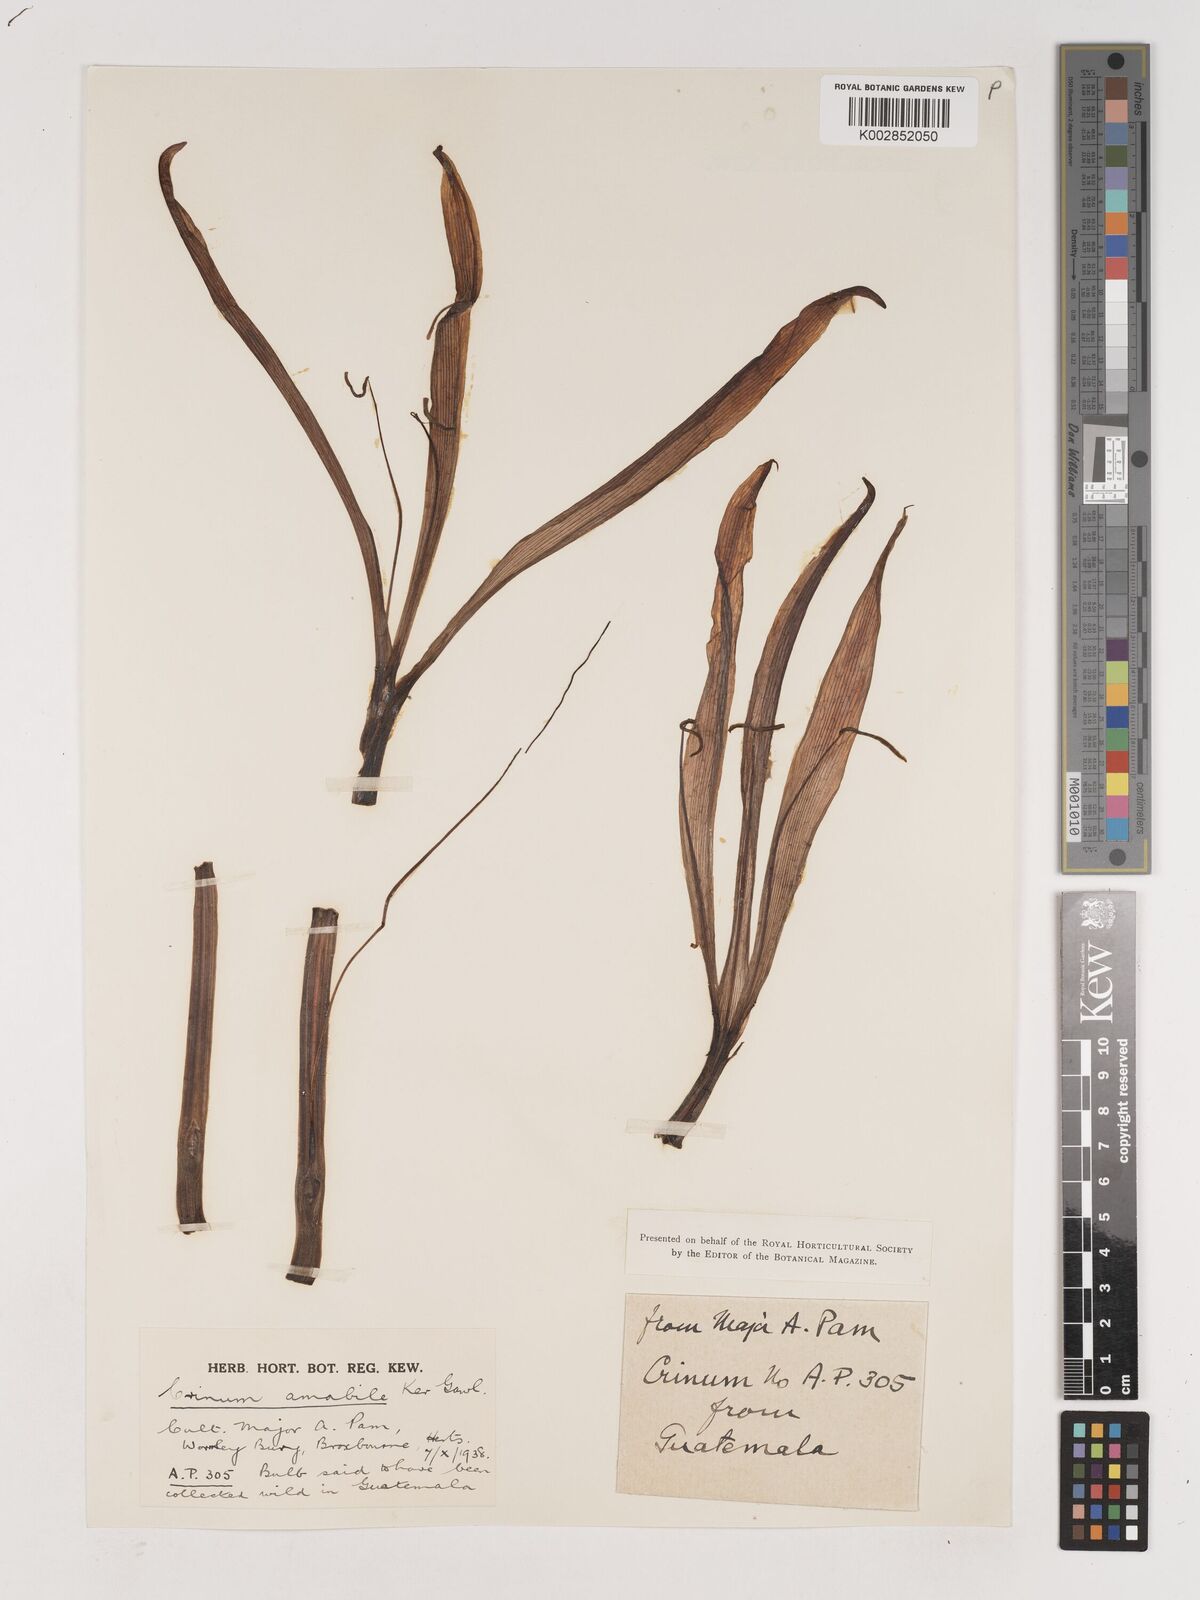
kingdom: Plantae
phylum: Tracheophyta
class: Liliopsida
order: Asparagales
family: Amaryllidaceae
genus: Crinum
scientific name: Crinum amabile
